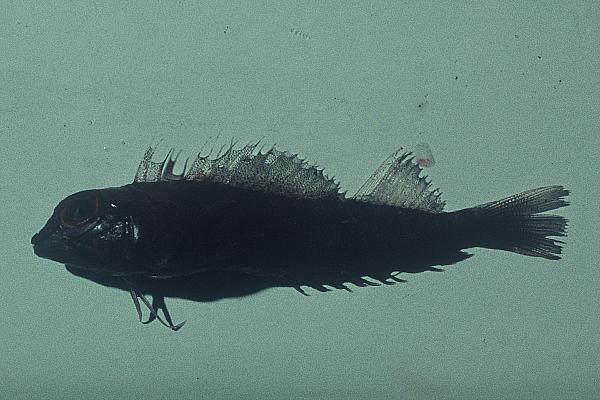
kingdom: Animalia
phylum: Chordata
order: Perciformes
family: Tripterygiidae
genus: Helcogramma
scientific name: Helcogramma rharhabe
